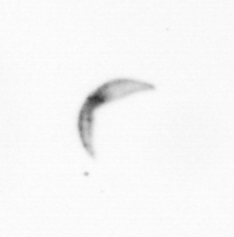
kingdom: Chromista
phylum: Ochrophyta
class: Bacillariophyceae
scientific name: Bacillariophyceae
